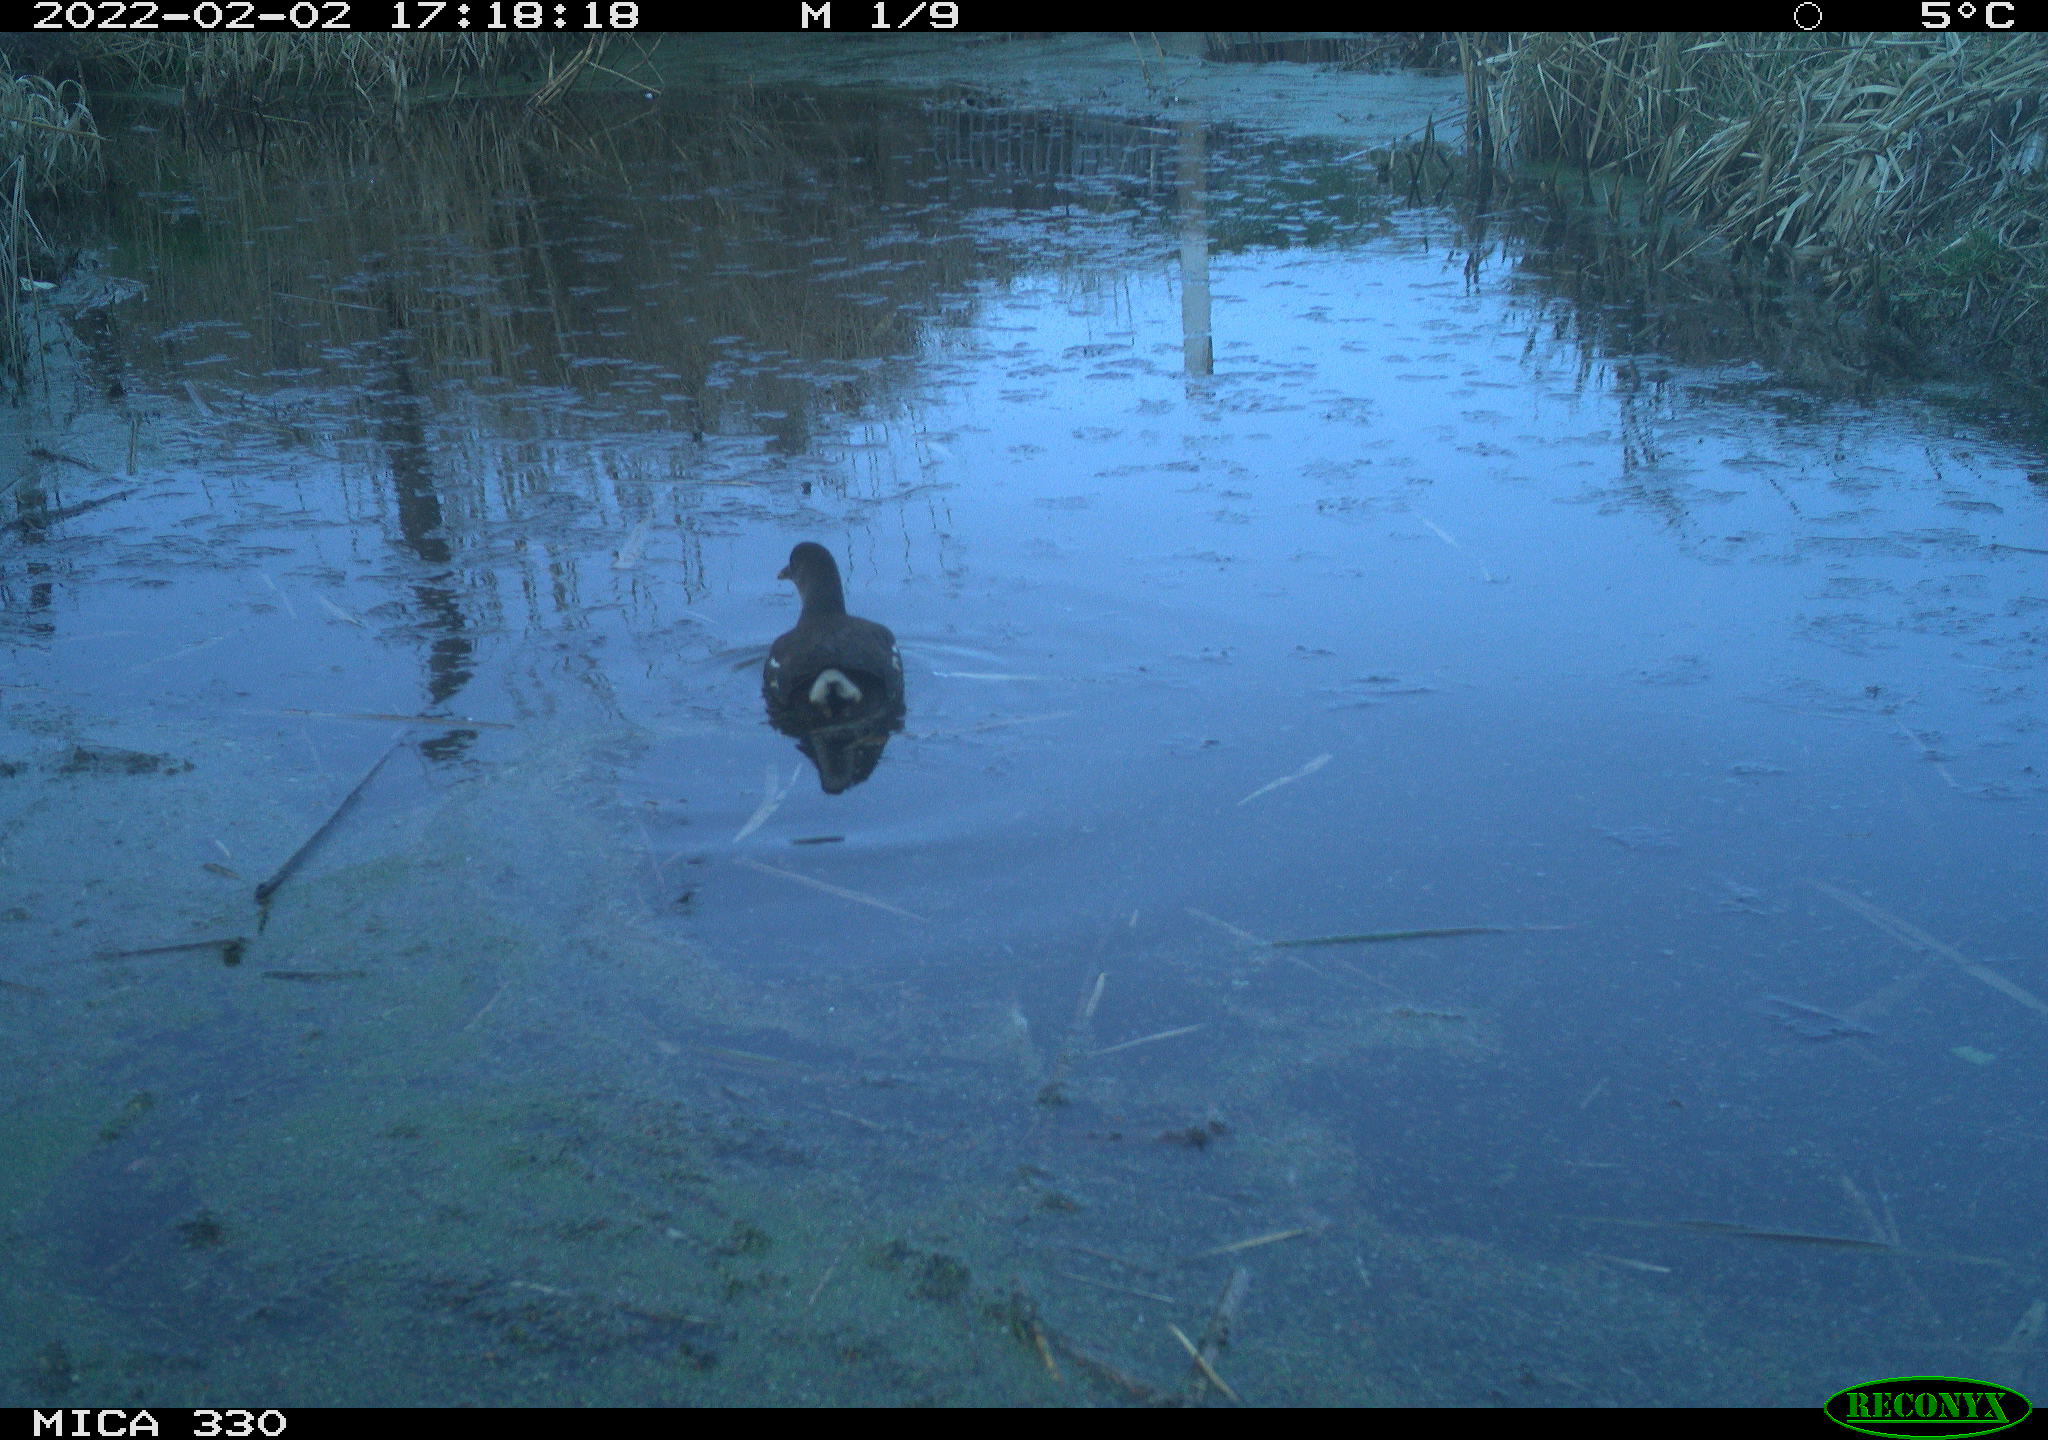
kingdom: Animalia
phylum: Chordata
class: Aves
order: Gruiformes
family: Rallidae
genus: Gallinula
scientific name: Gallinula chloropus
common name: Common moorhen
